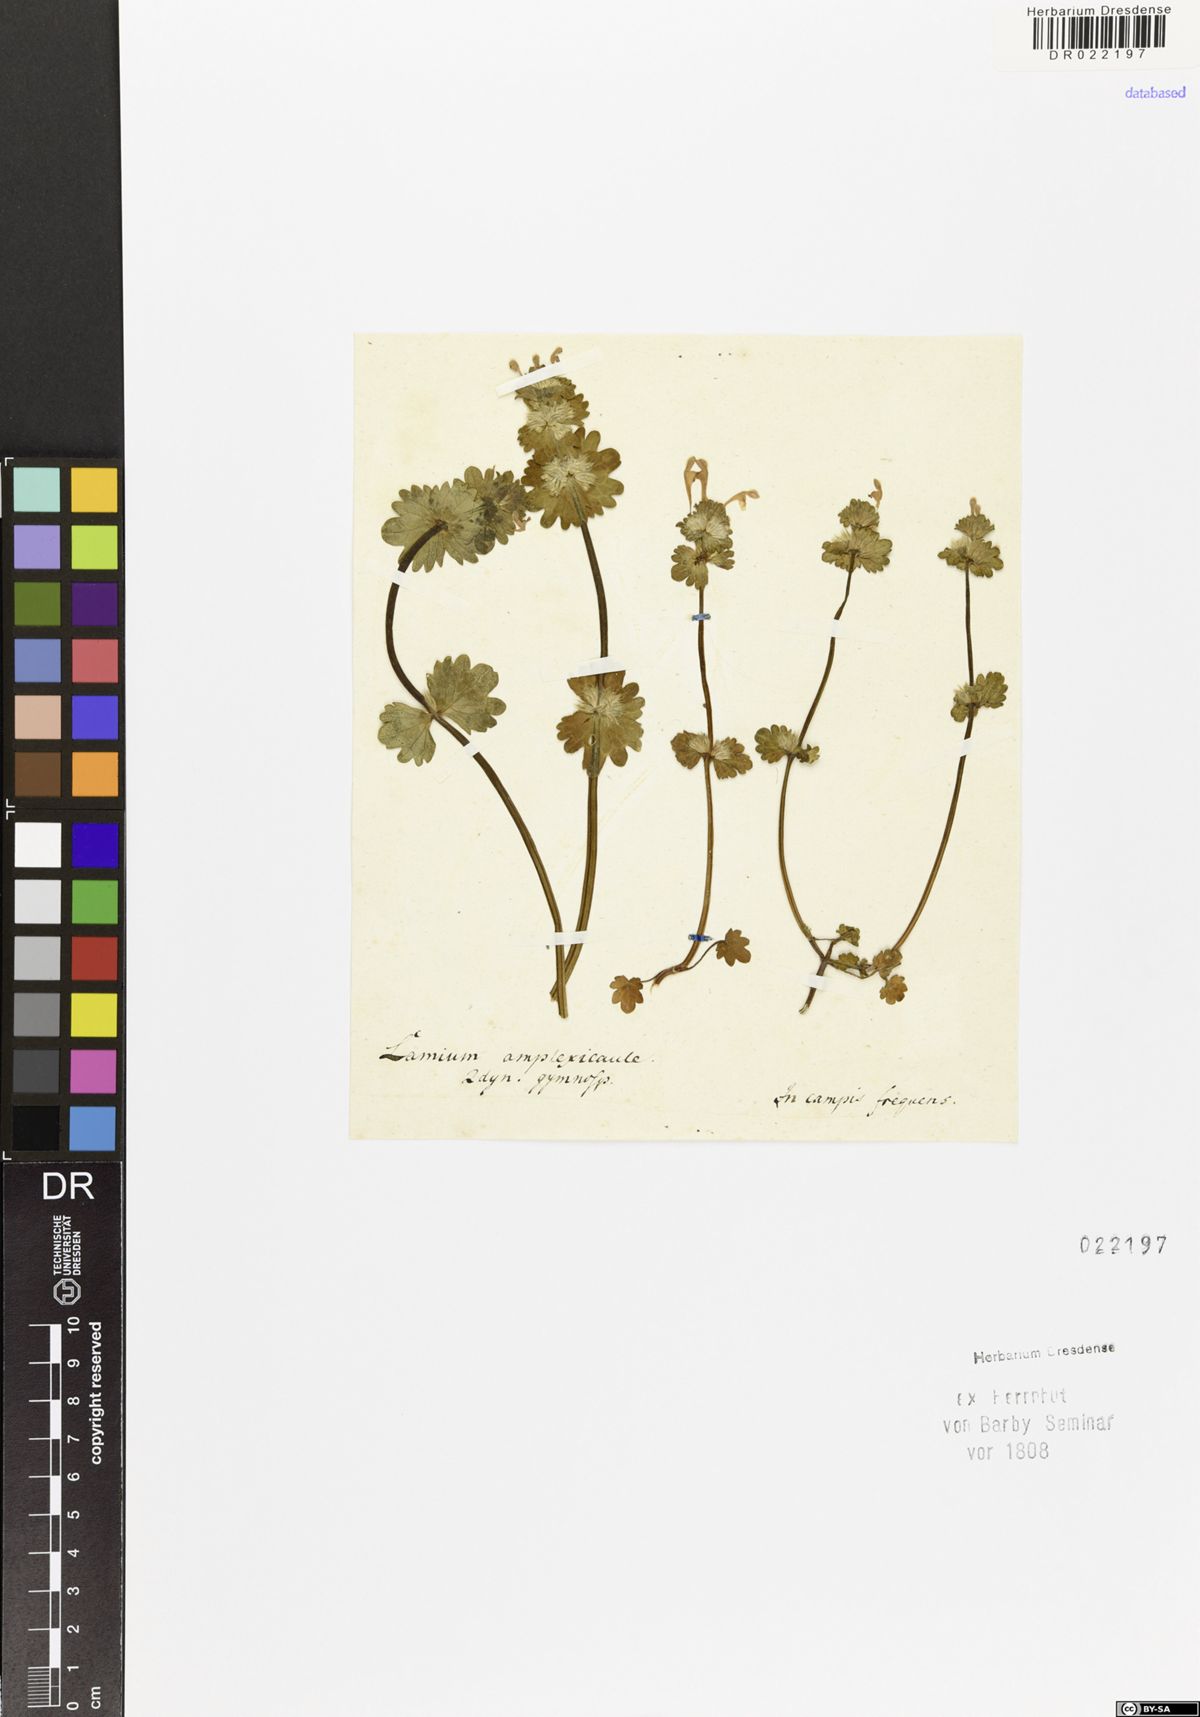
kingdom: Plantae
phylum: Tracheophyta
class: Magnoliopsida
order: Lamiales
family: Lamiaceae
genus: Lamium
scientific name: Lamium amplexicaule
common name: Henbit dead-nettle
